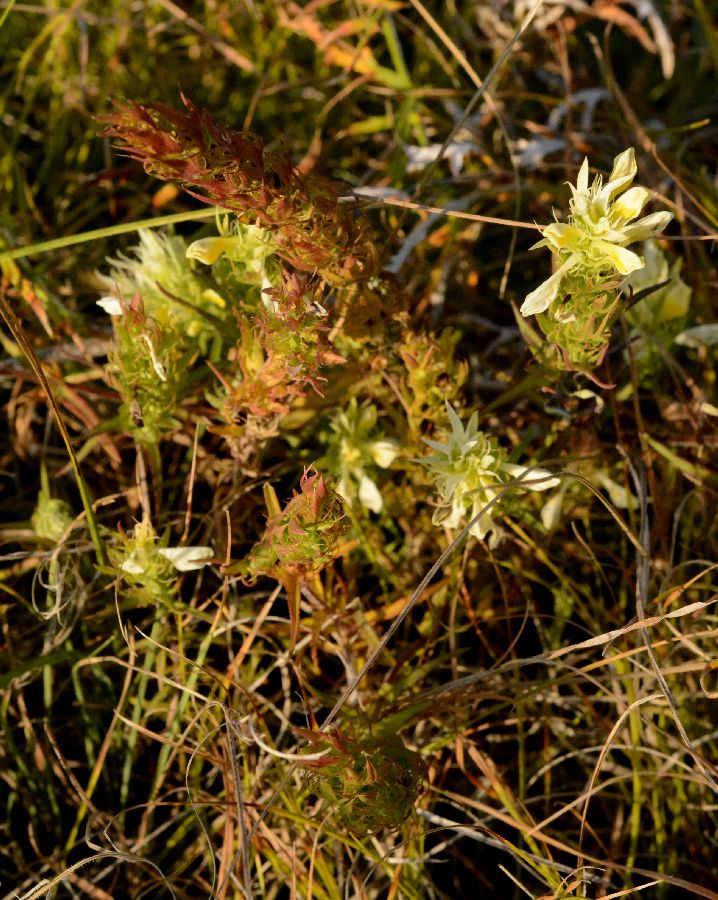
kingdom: Plantae
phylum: Tracheophyta
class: Magnoliopsida
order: Lamiales
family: Orobanchaceae
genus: Melampyrum
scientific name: Melampyrum
